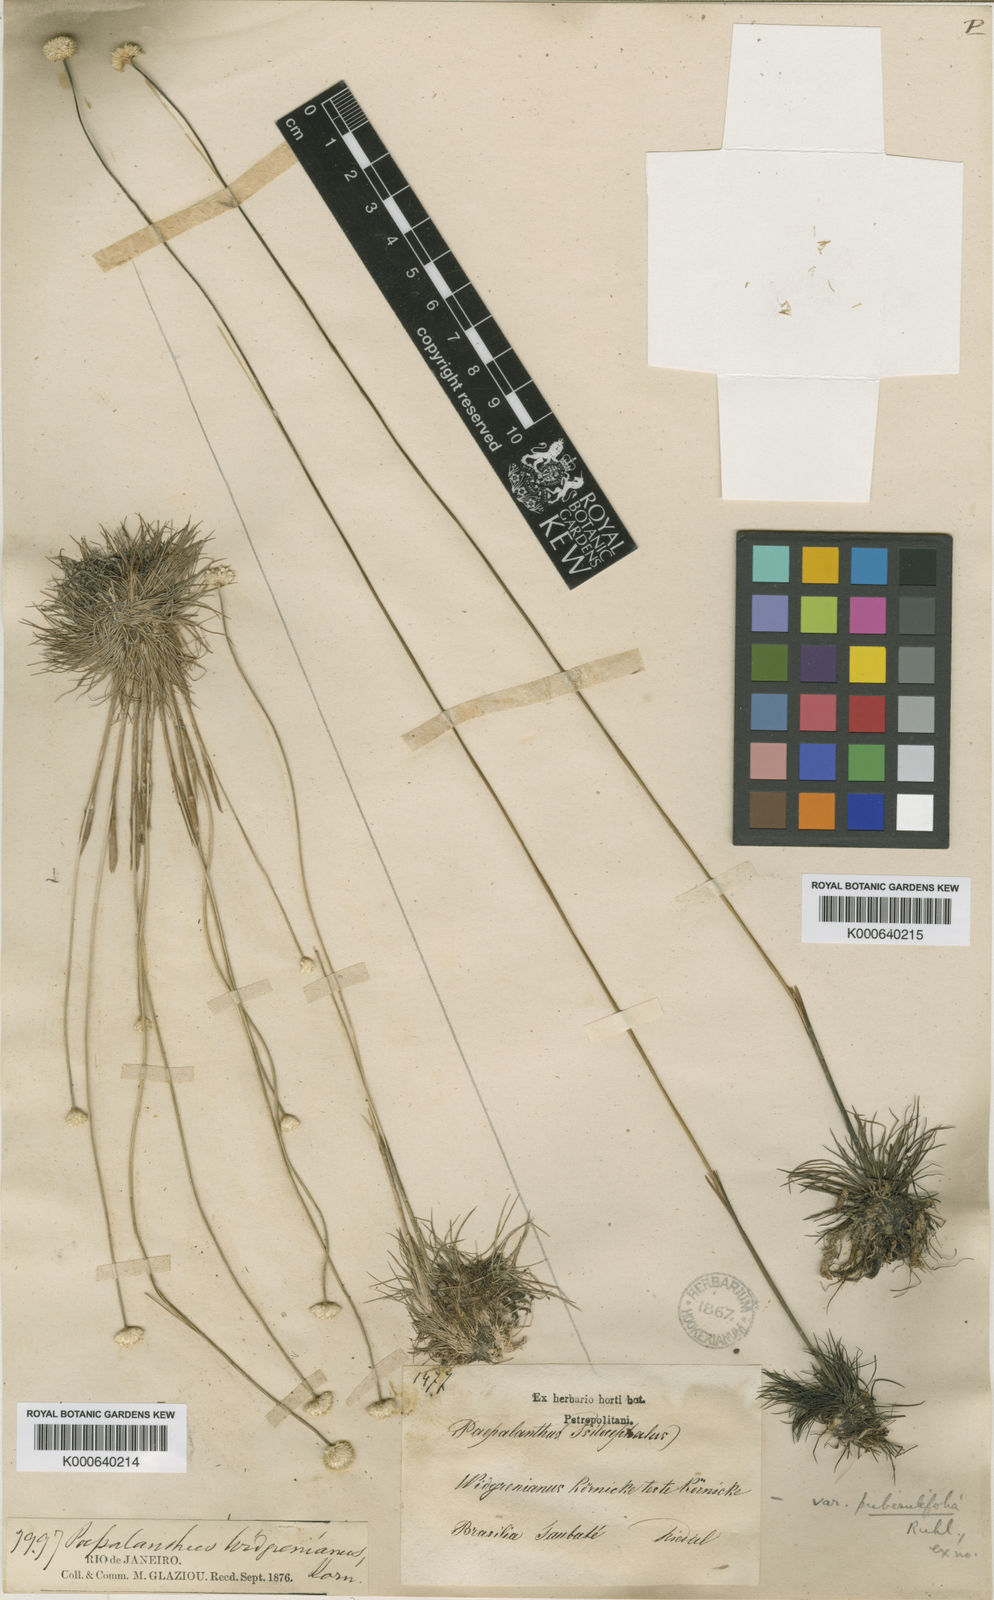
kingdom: Plantae
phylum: Tracheophyta
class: Liliopsida
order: Poales
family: Eriocaulaceae
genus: Syngonanthus
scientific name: Syngonanthus
